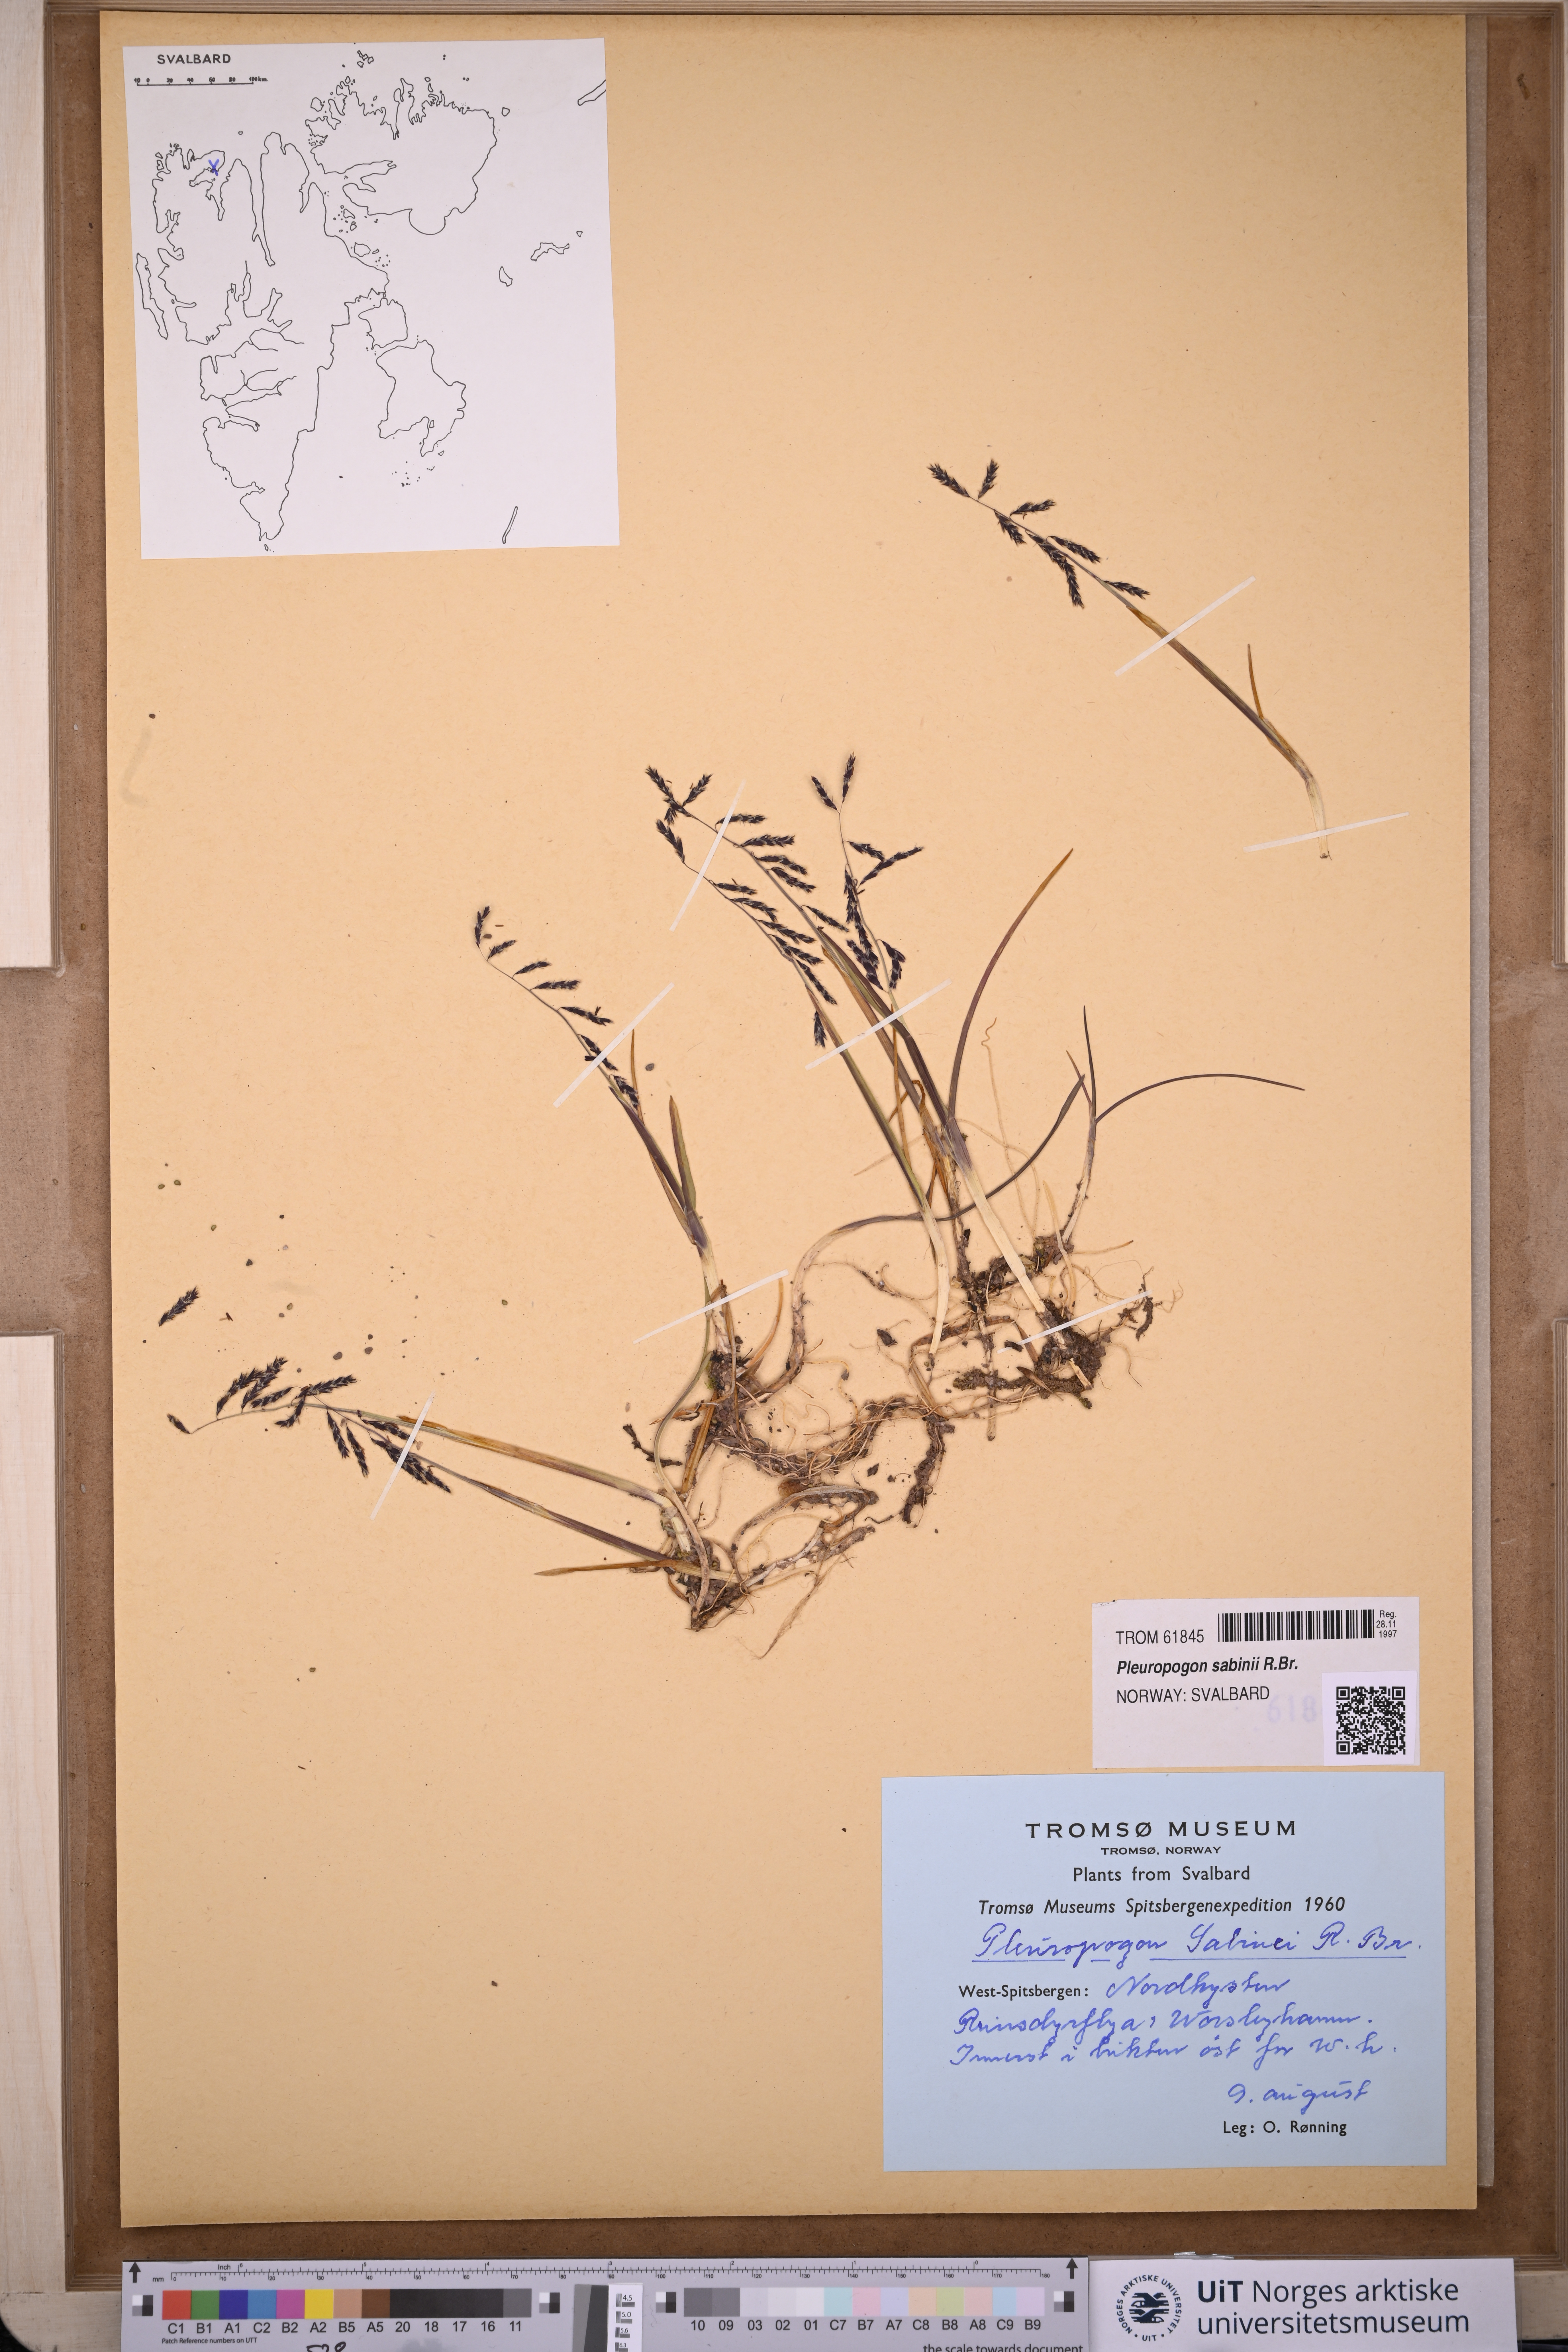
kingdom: Plantae
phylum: Tracheophyta
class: Liliopsida
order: Poales
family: Poaceae
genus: Pleuropogon
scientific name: Pleuropogon sabinei
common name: Sabine's false semaphoregrass
